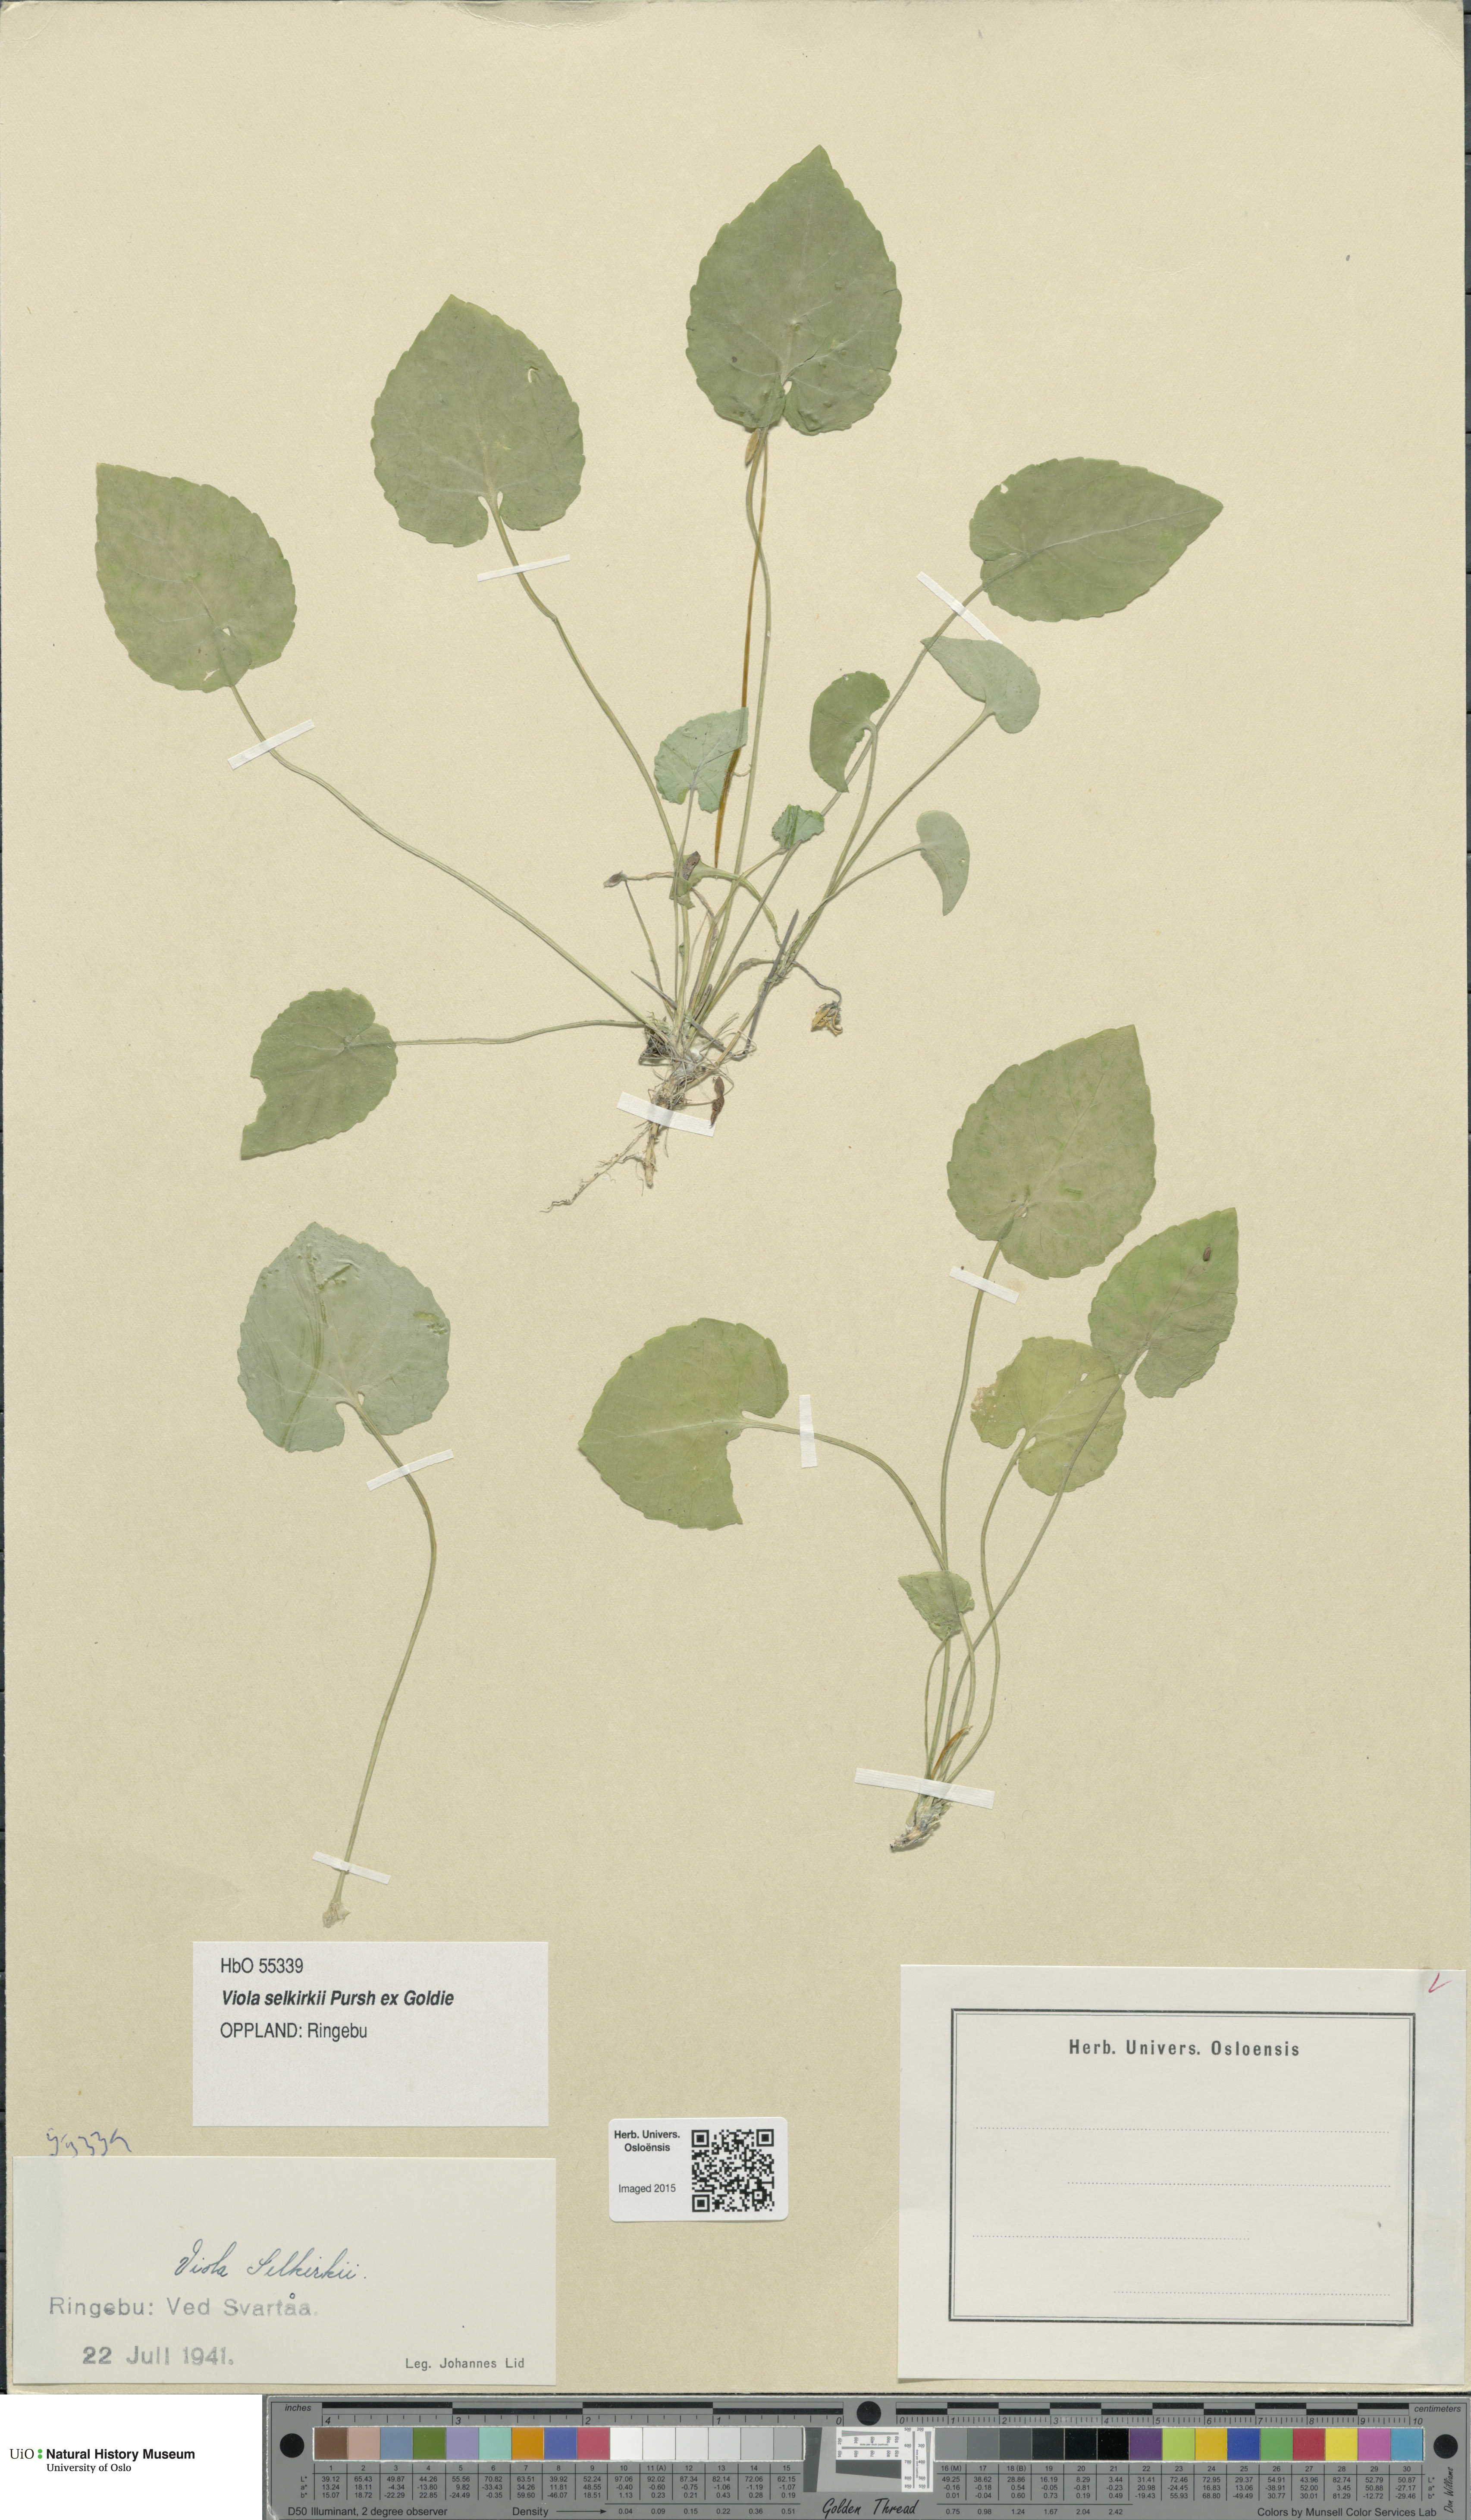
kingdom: Plantae
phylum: Tracheophyta
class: Magnoliopsida
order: Malpighiales
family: Violaceae
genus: Viola
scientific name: Viola selkirkii
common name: Selkirk's violet
